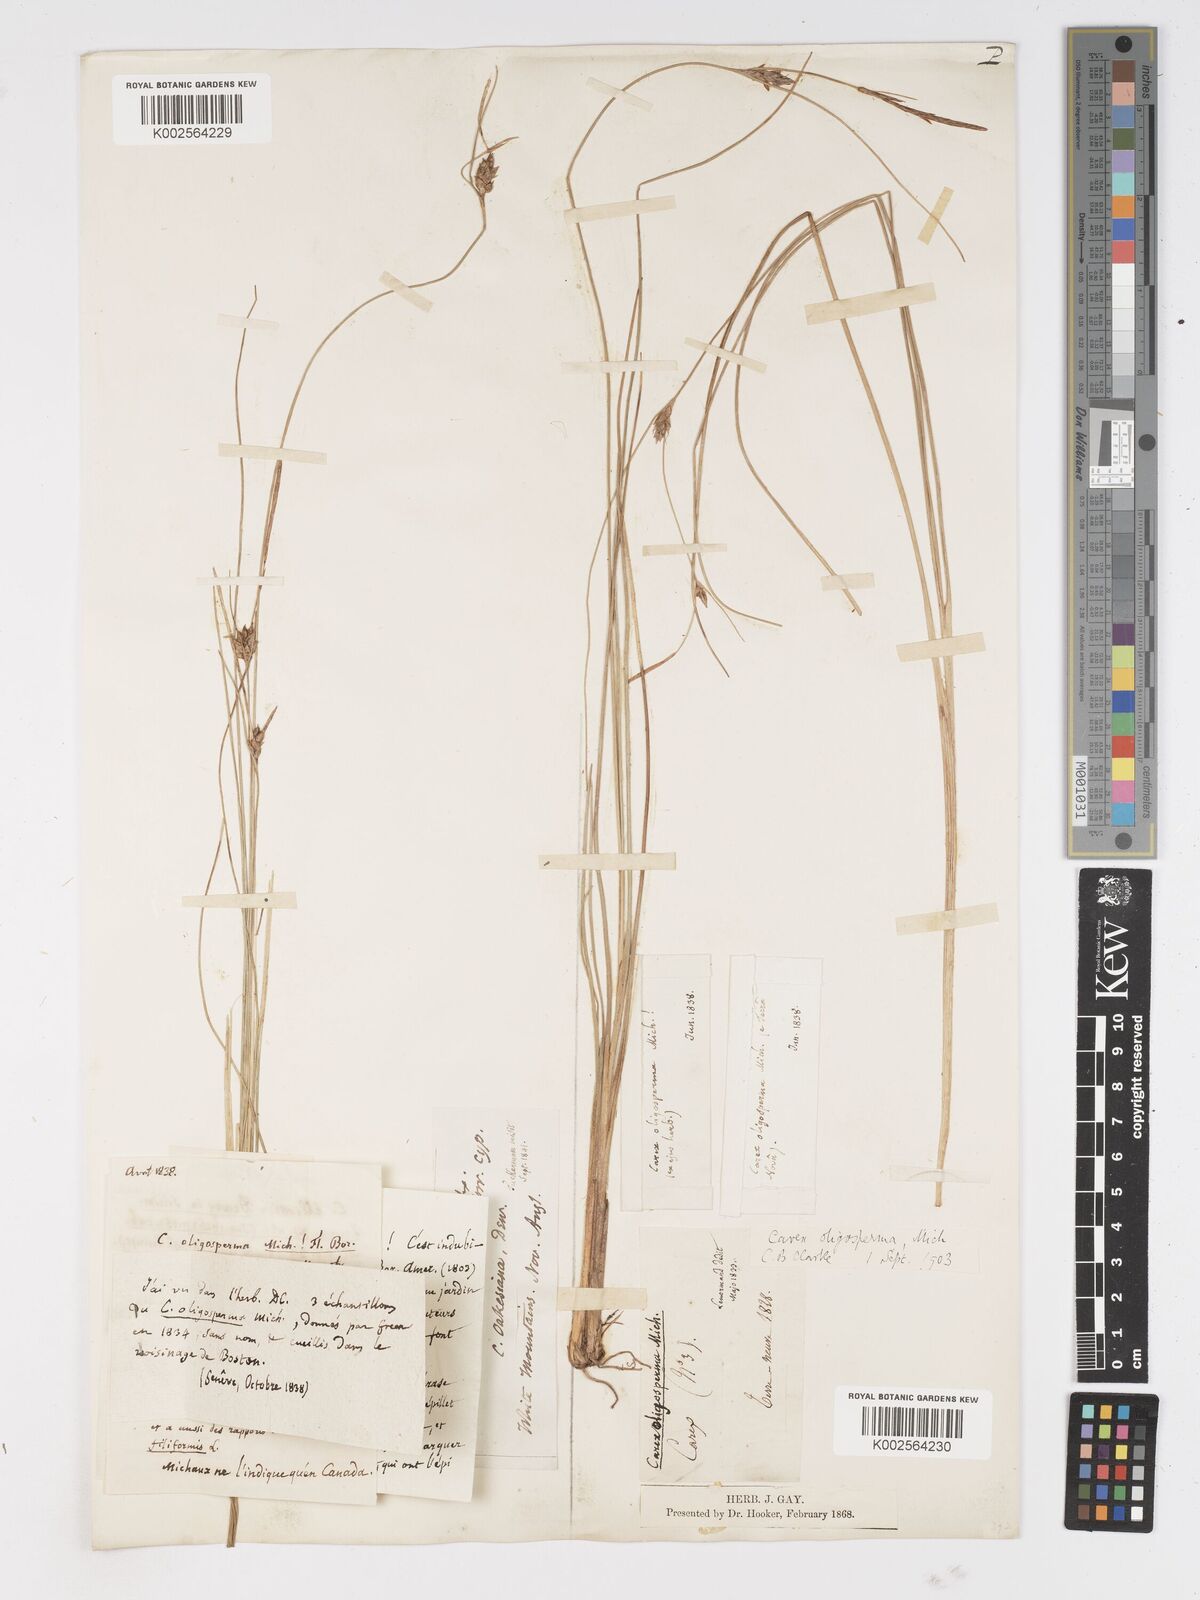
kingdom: Plantae
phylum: Tracheophyta
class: Liliopsida
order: Poales
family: Cyperaceae
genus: Carex
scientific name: Carex oligosperma
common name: Few-seed sedge
